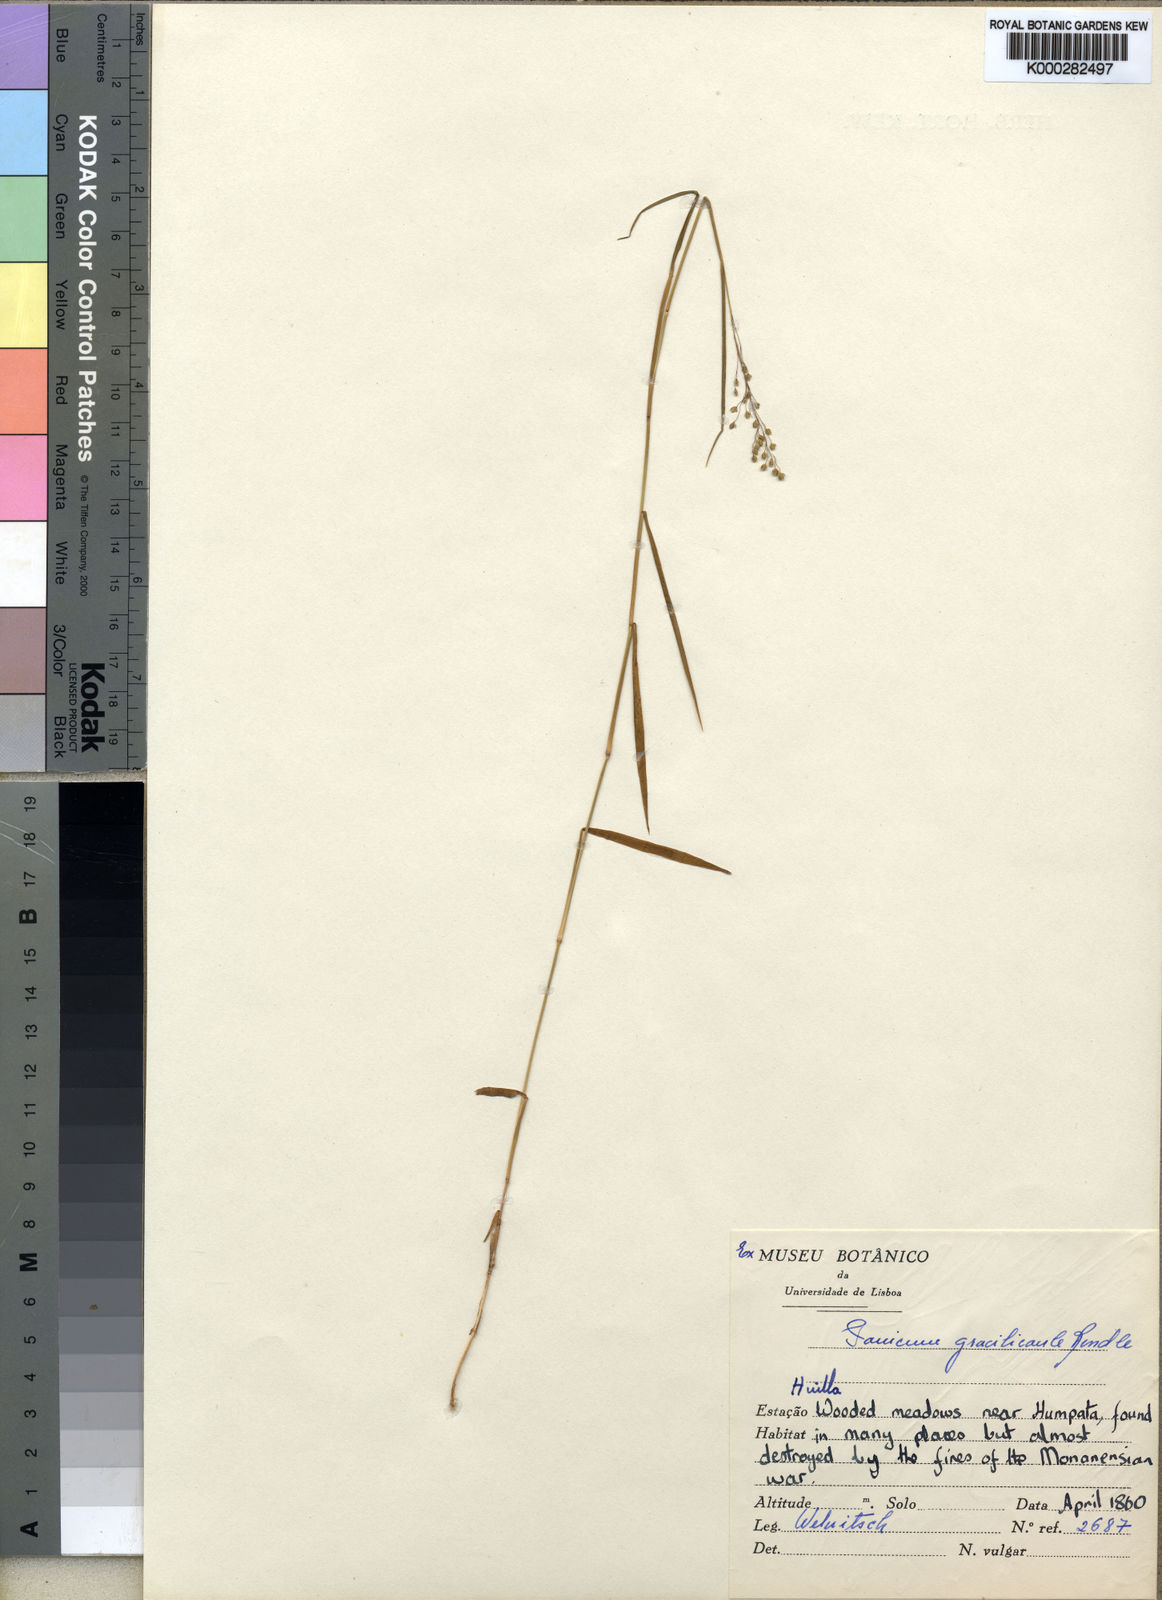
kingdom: Plantae
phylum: Tracheophyta
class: Liliopsida
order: Poales
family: Poaceae
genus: Trichanthecium
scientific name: Trichanthecium gracilicaule
